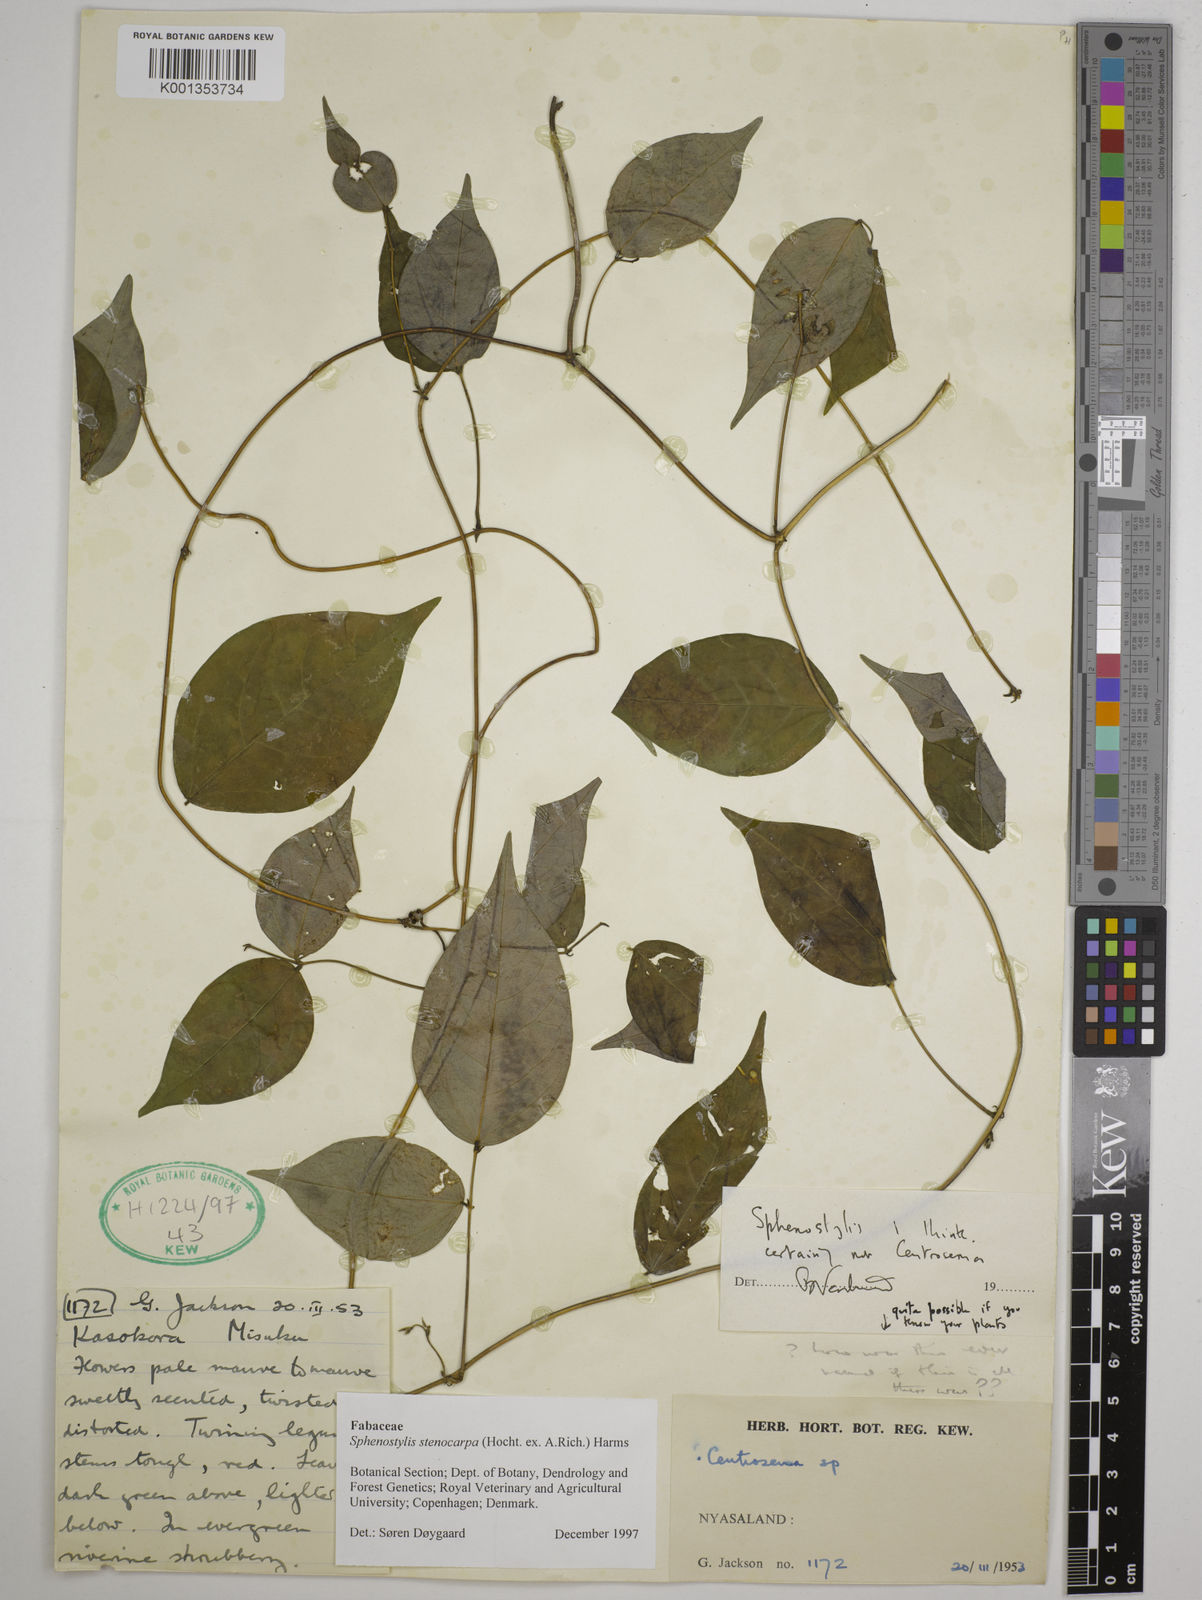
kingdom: Plantae
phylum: Tracheophyta
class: Magnoliopsida
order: Fabales
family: Fabaceae
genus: Sphenostylis
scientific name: Sphenostylis stenocarpa
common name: Yam-pea
